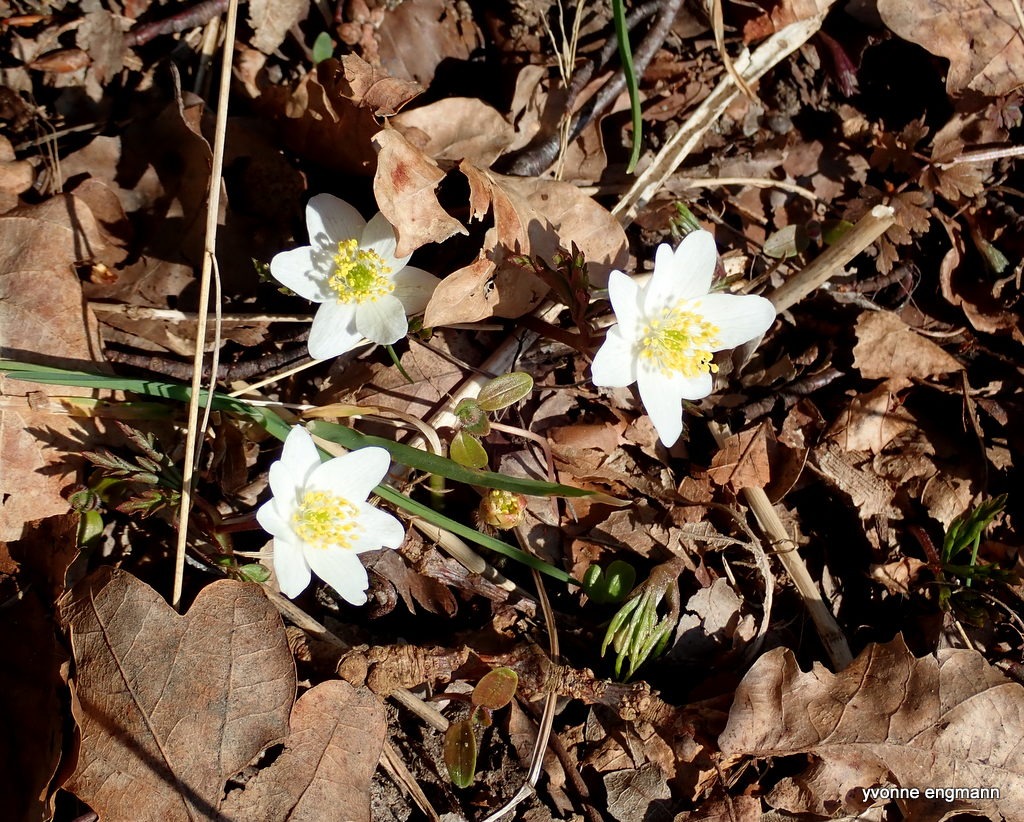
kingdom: Plantae
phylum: Tracheophyta
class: Magnoliopsida
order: Ranunculales
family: Ranunculaceae
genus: Anemone
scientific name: Anemone nemorosa
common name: Hvid anemone
